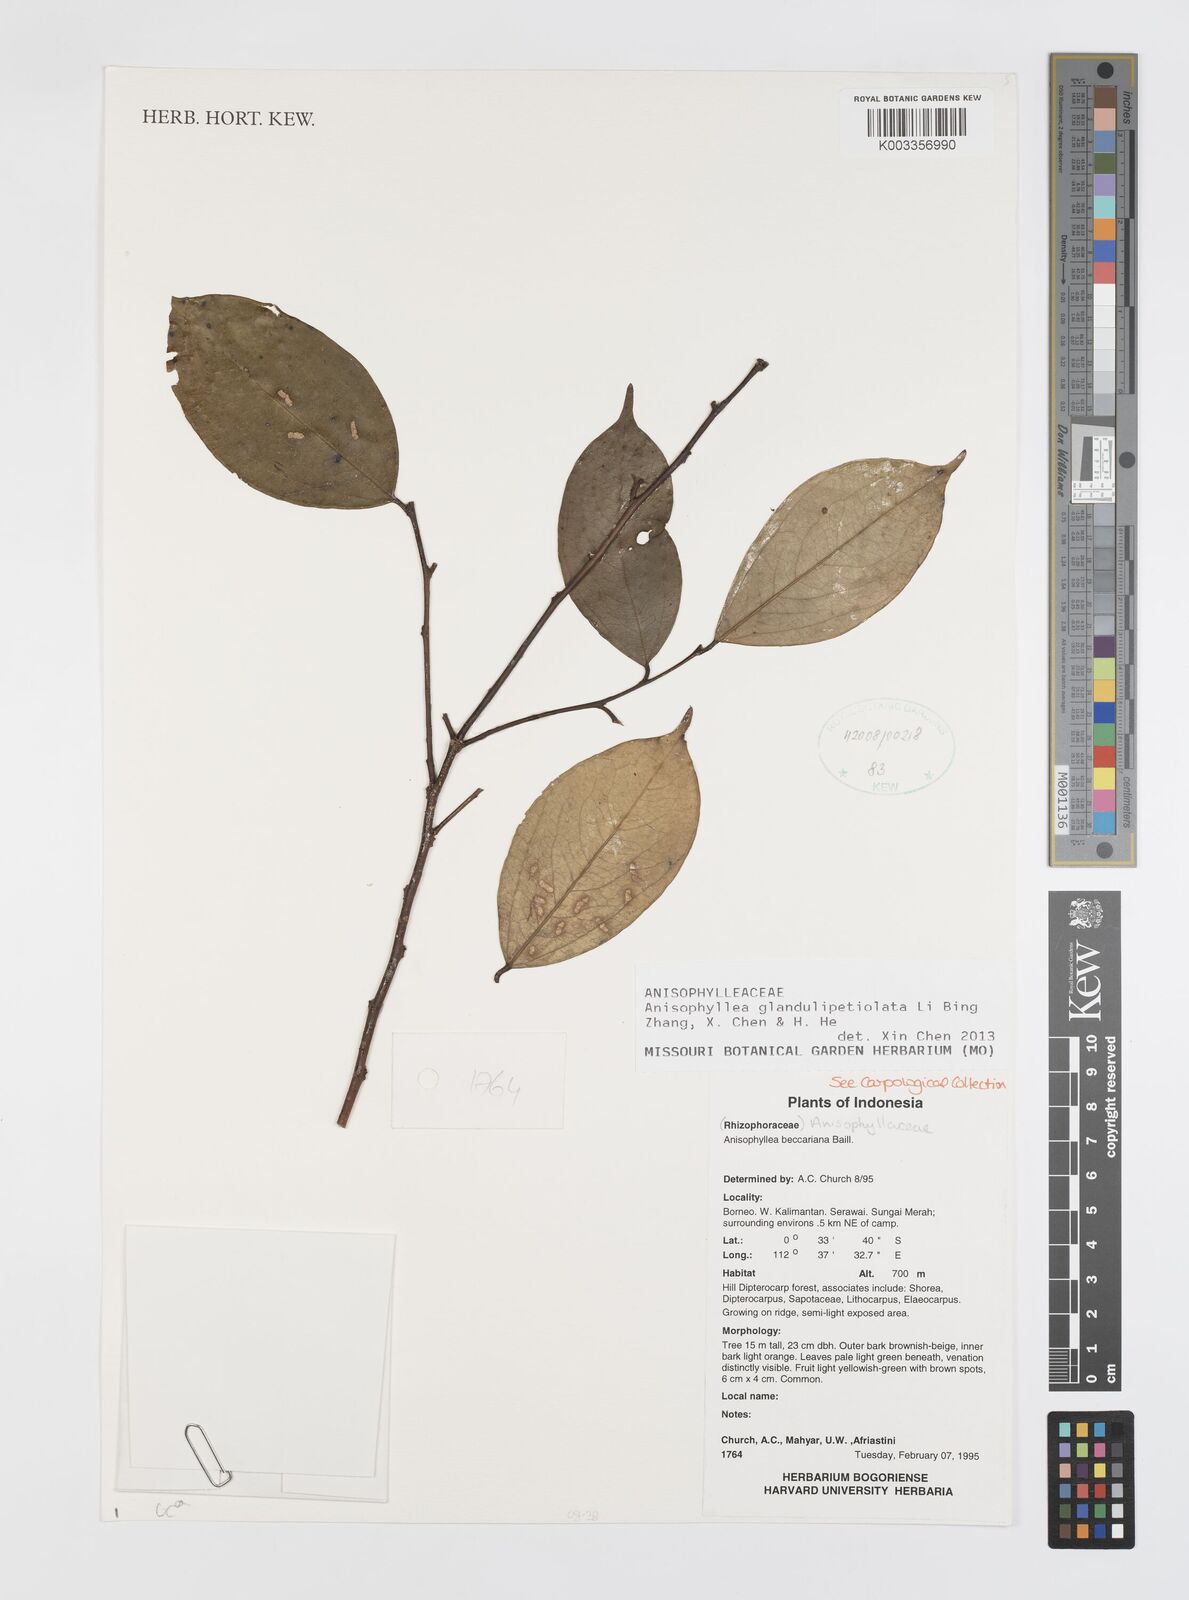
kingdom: Plantae
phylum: Tracheophyta
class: Magnoliopsida
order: Cucurbitales
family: Anisophylleaceae
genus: Anisophyllea
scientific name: Anisophyllea glandulipetiolata
